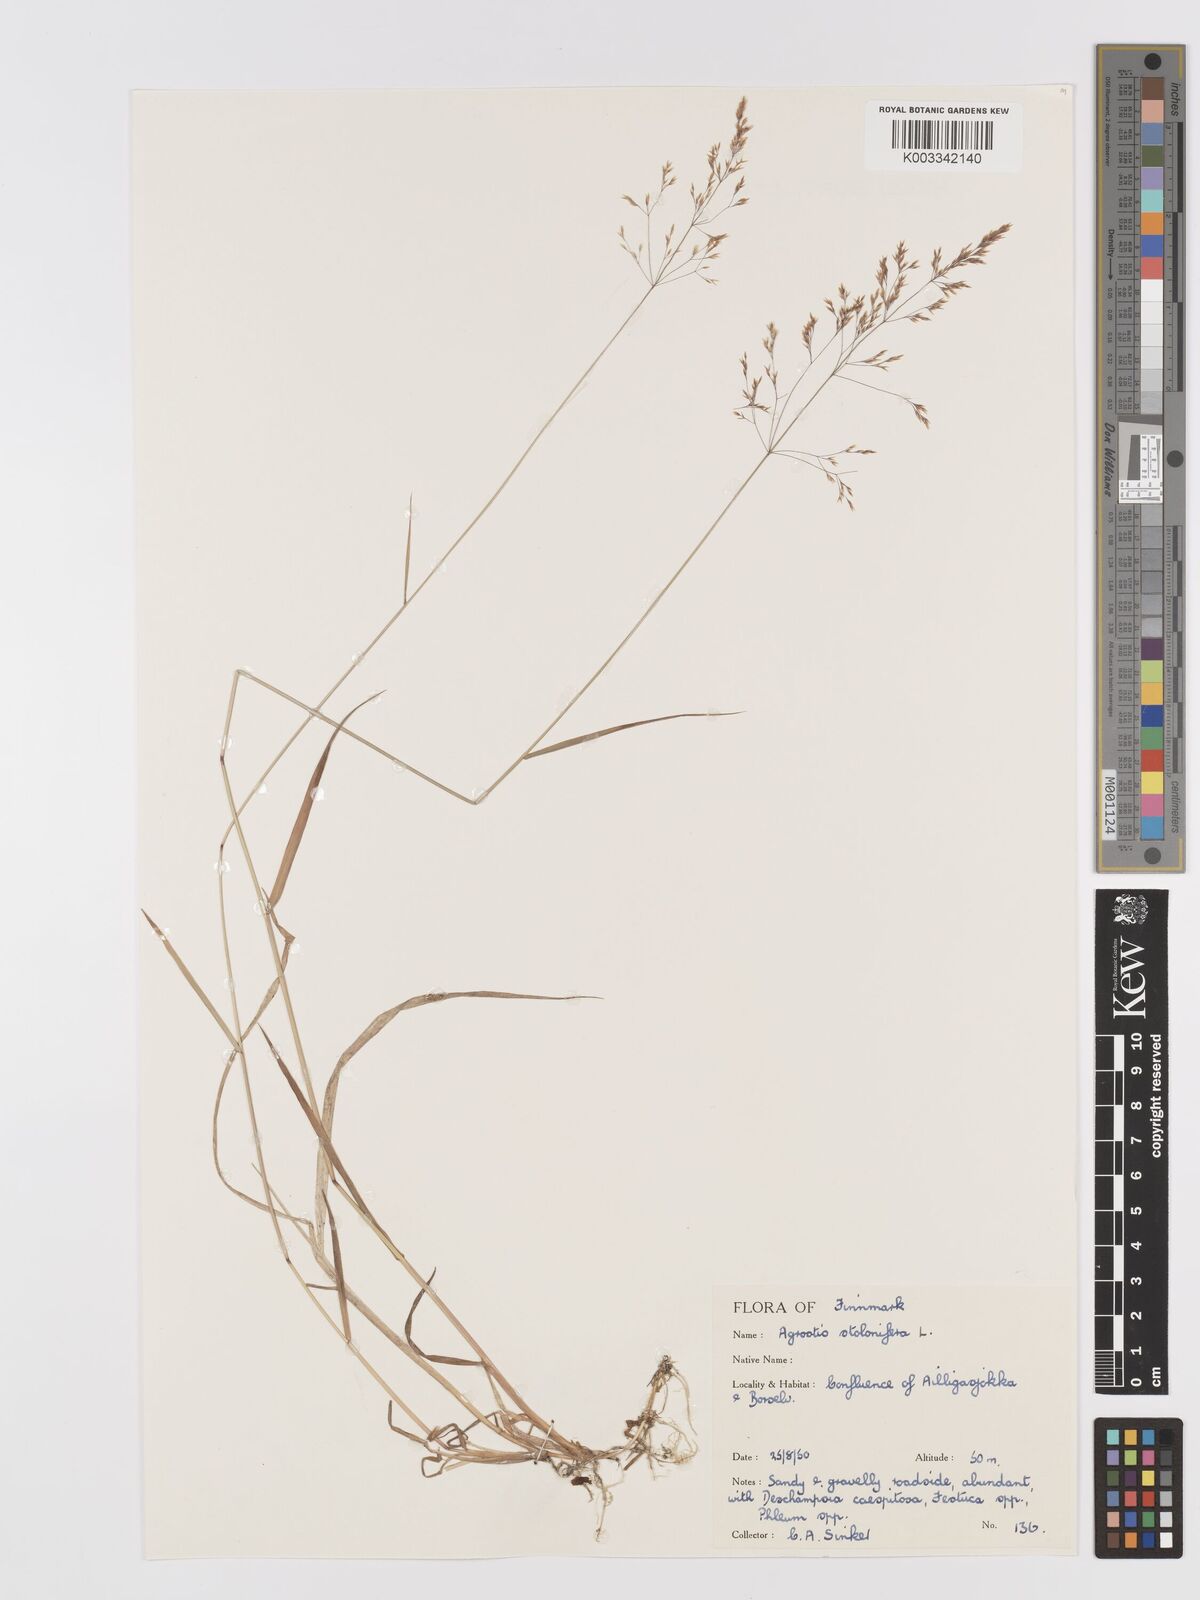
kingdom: Plantae
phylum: Tracheophyta
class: Liliopsida
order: Poales
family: Poaceae
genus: Agrostis
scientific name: Agrostis stolonifera
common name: Creeping bentgrass
